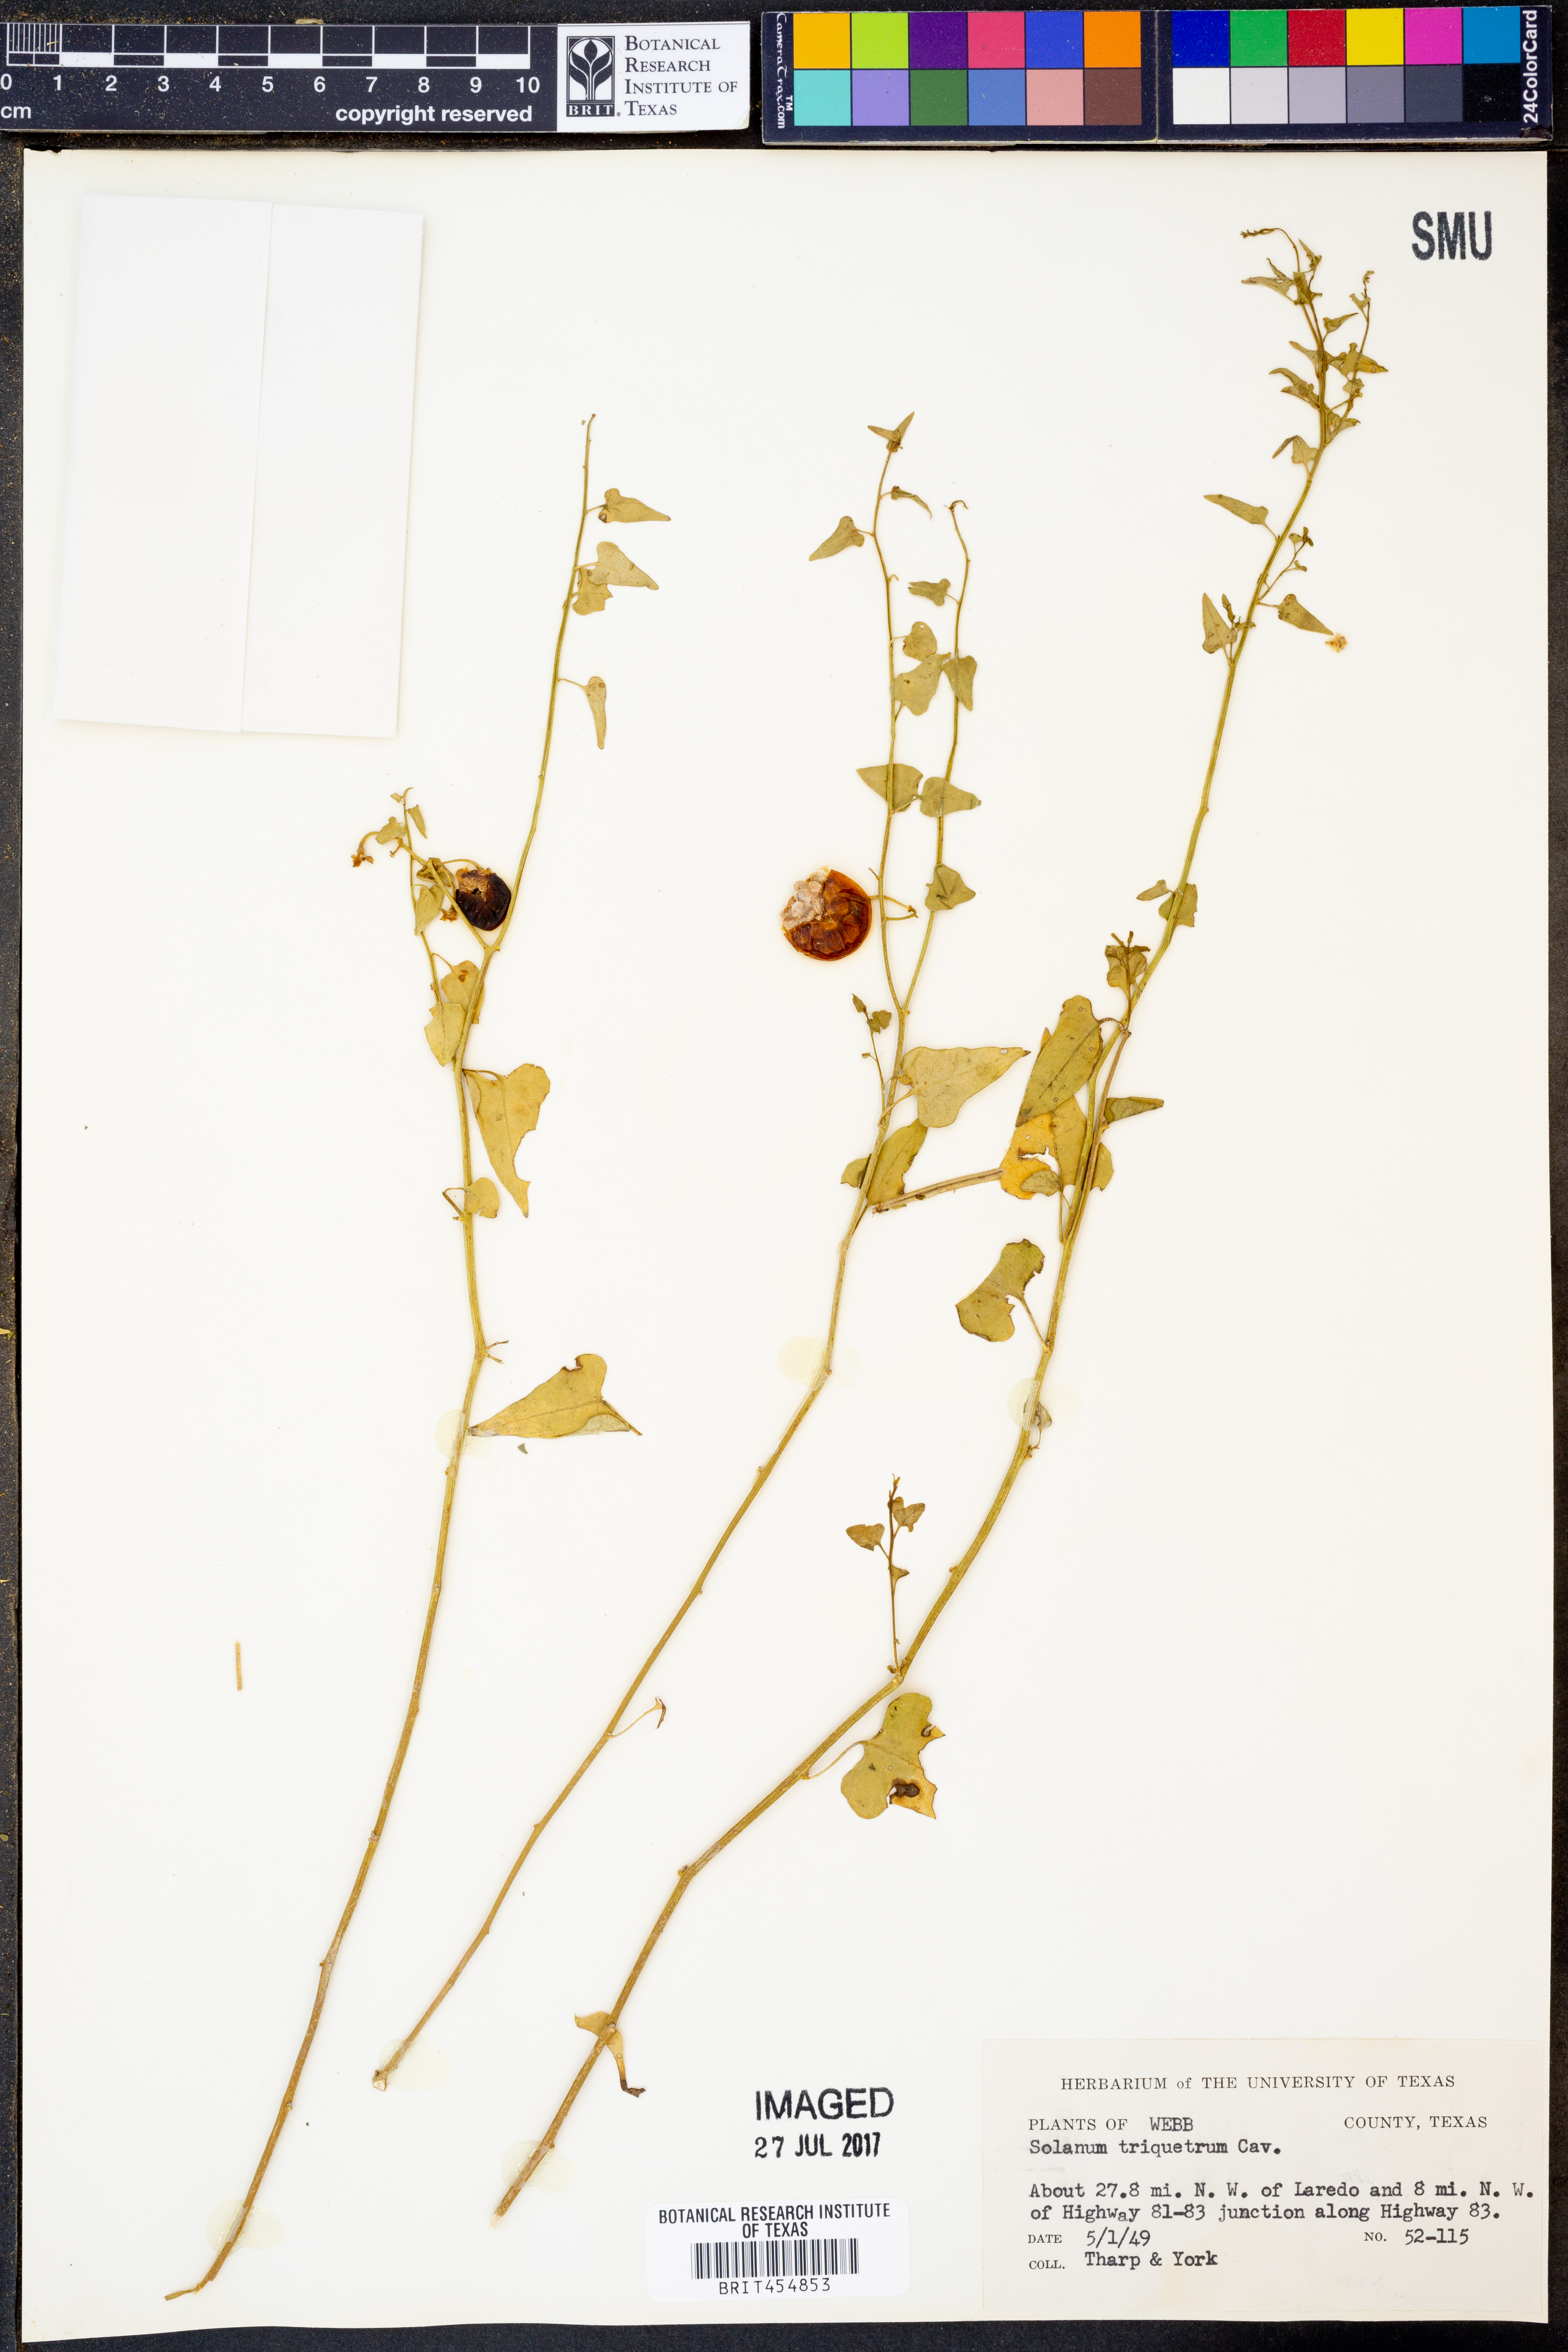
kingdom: Plantae
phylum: Tracheophyta
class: Magnoliopsida
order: Solanales
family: Solanaceae
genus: Solanum
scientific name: Solanum triquetrum
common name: Texas nightshade
